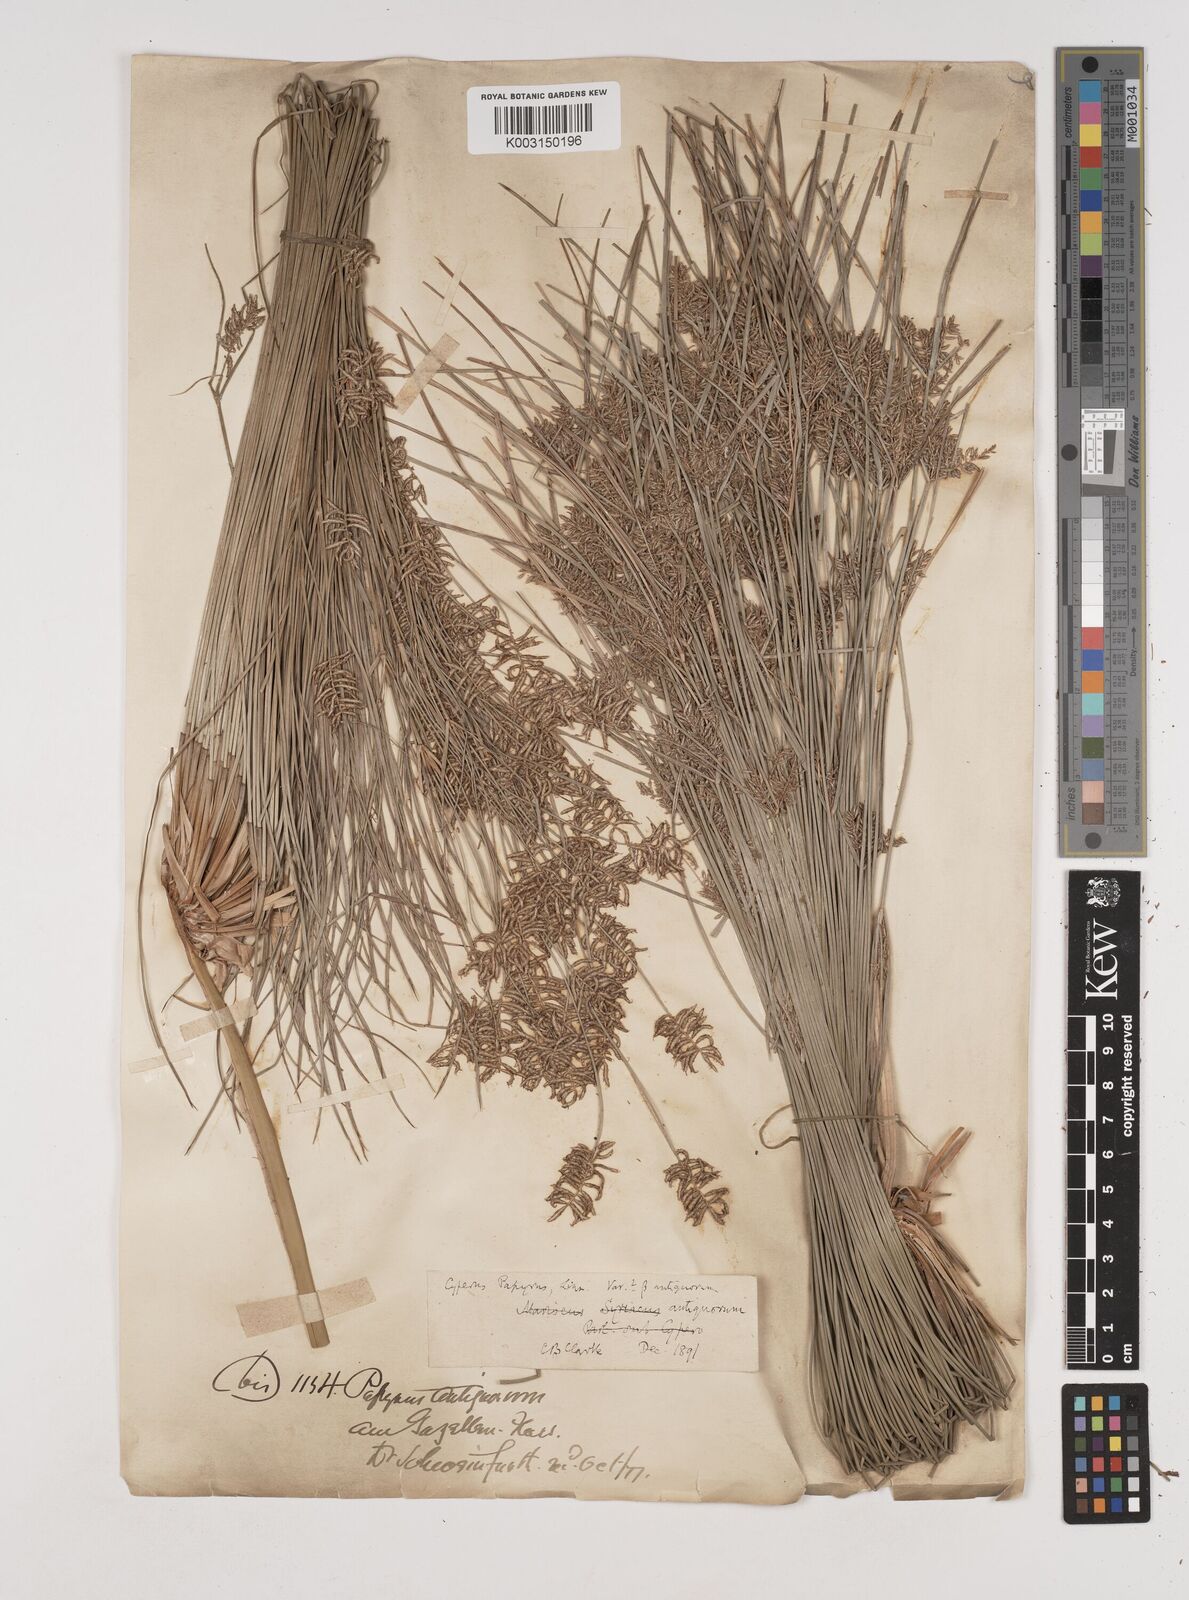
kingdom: Plantae
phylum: Tracheophyta
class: Liliopsida
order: Poales
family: Cyperaceae
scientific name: Cyperaceae
